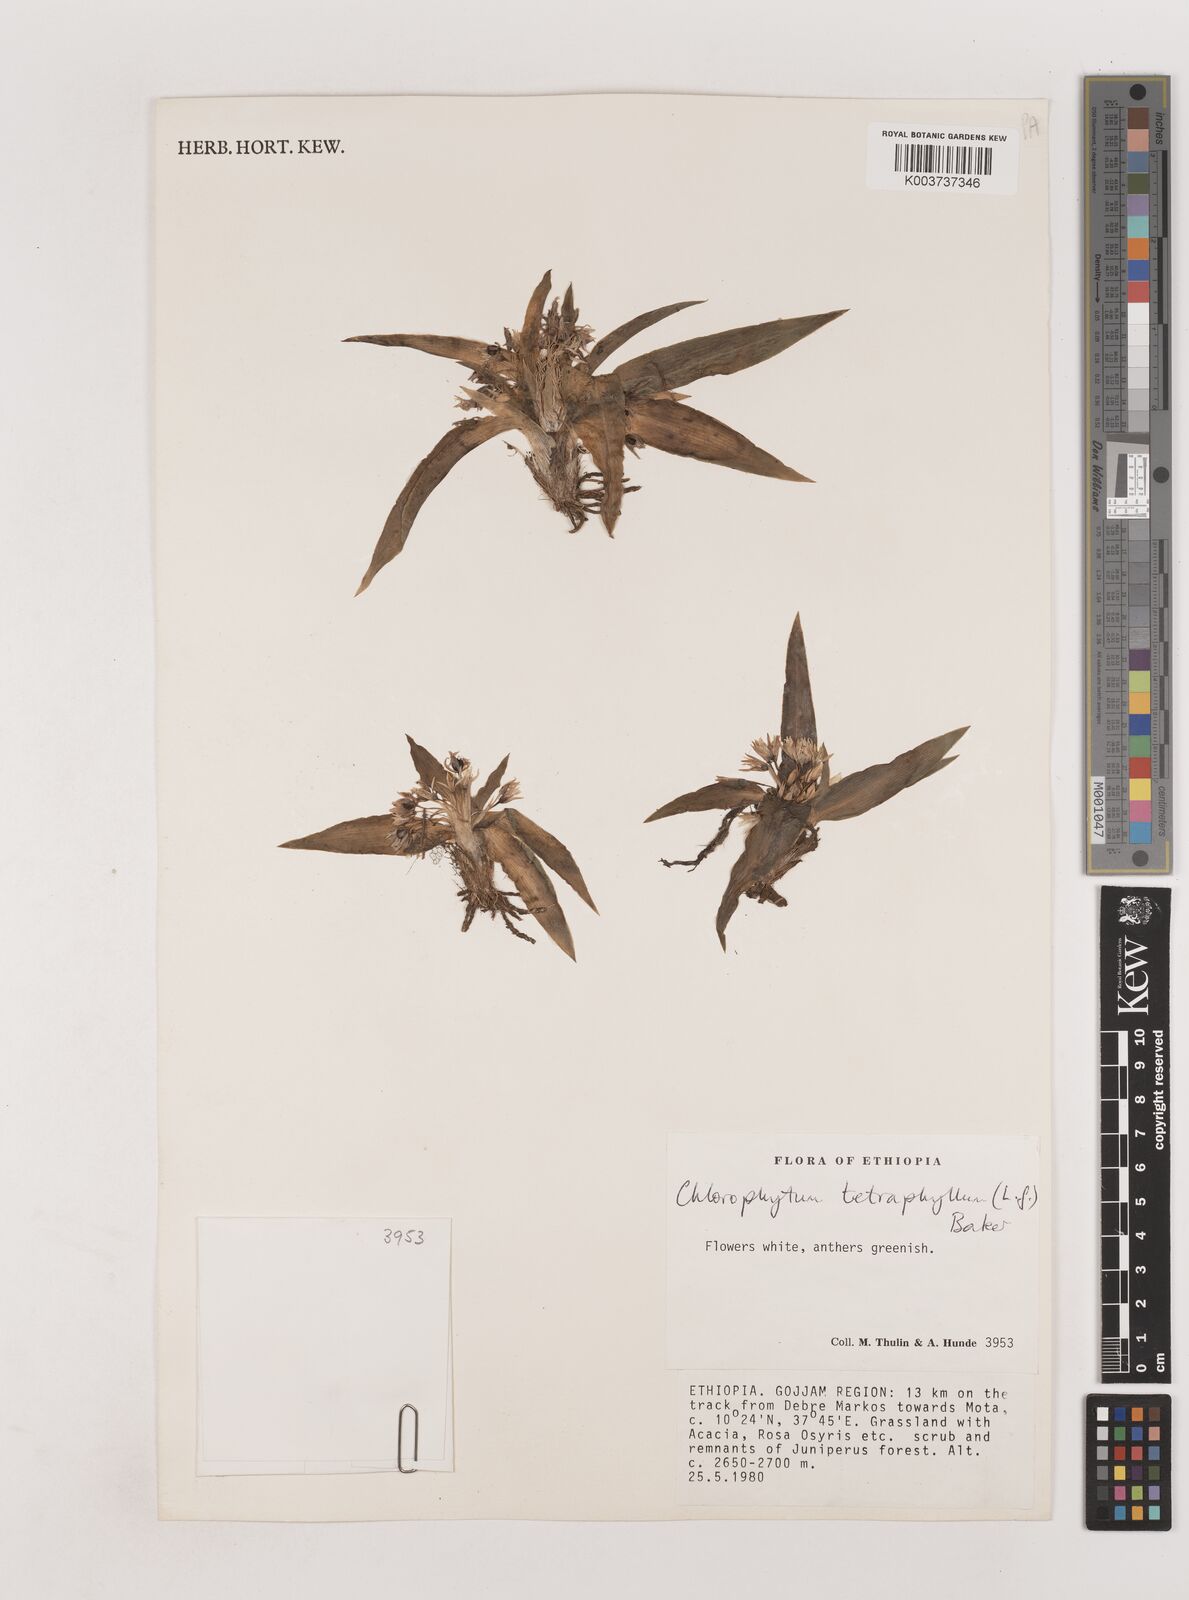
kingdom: Plantae
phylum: Tracheophyta
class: Liliopsida
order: Asparagales
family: Asparagaceae
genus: Chlorophytum
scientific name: Chlorophytum tetraphyllum
